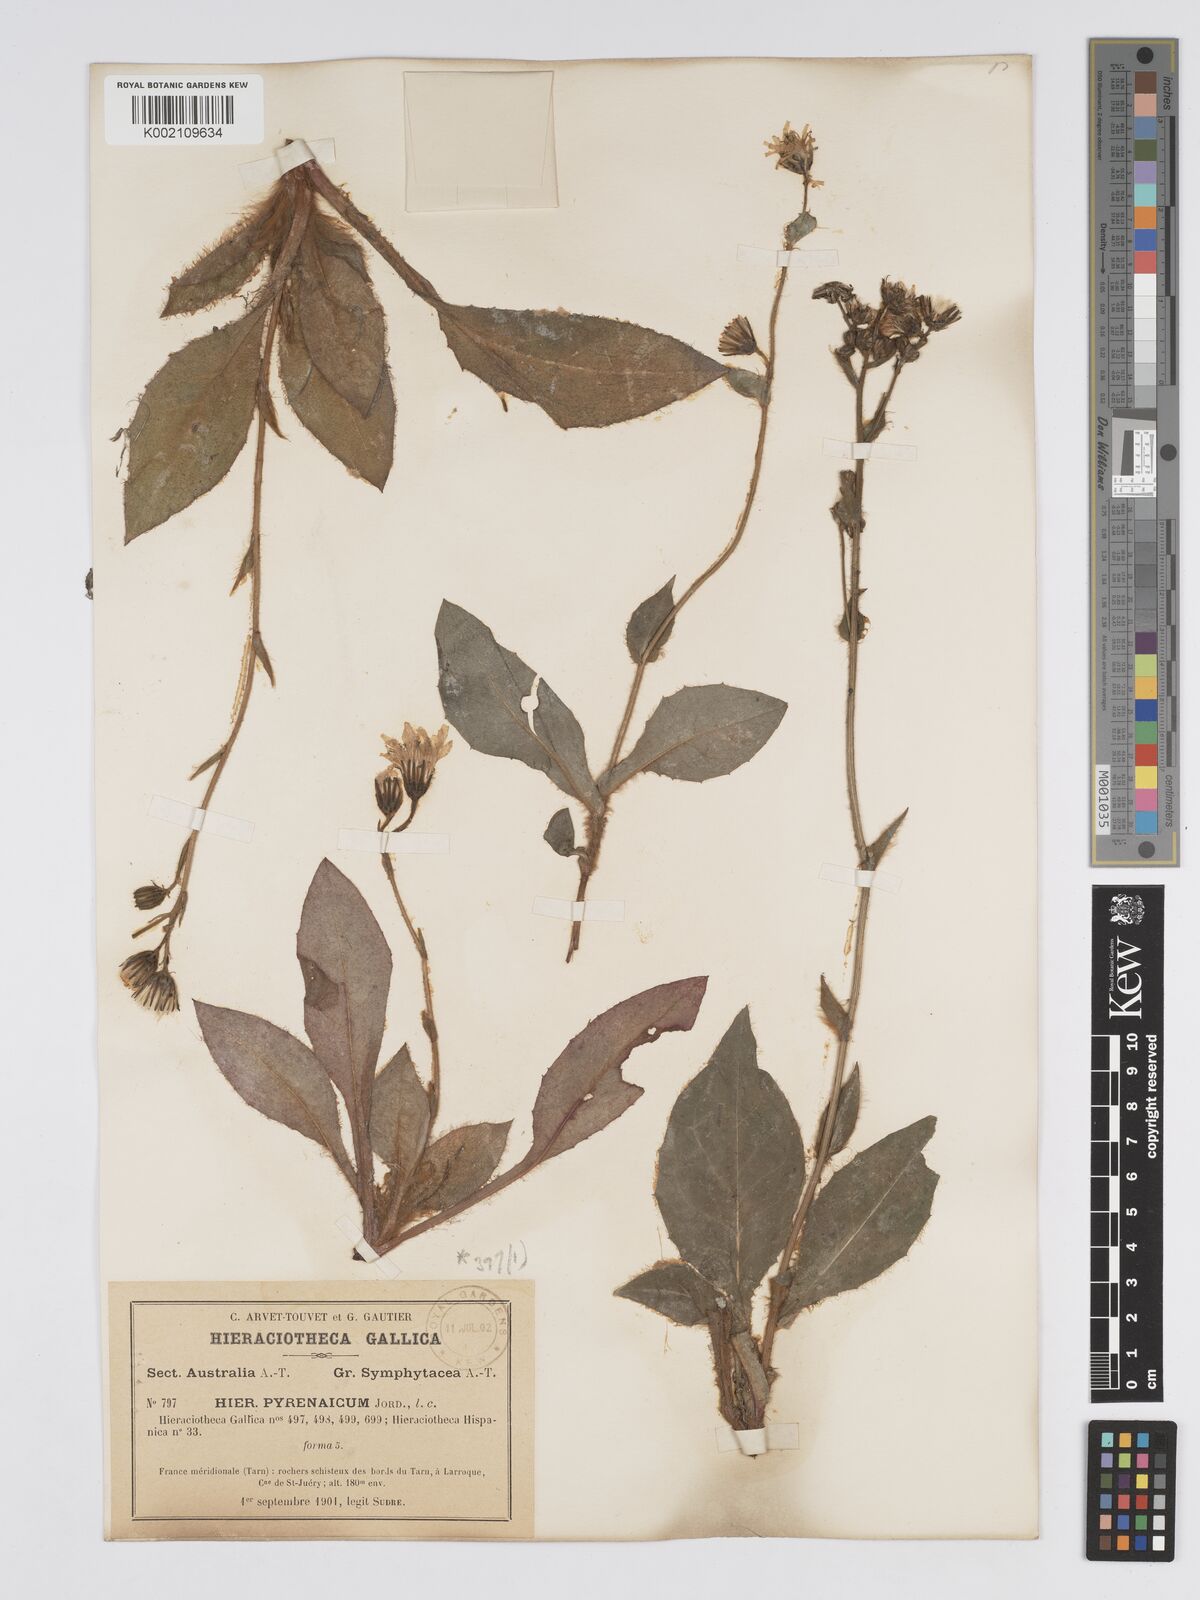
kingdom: Plantae
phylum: Tracheophyta
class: Magnoliopsida
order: Asterales
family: Asteraceae
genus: Hieracium
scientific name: Hieracium nobile
